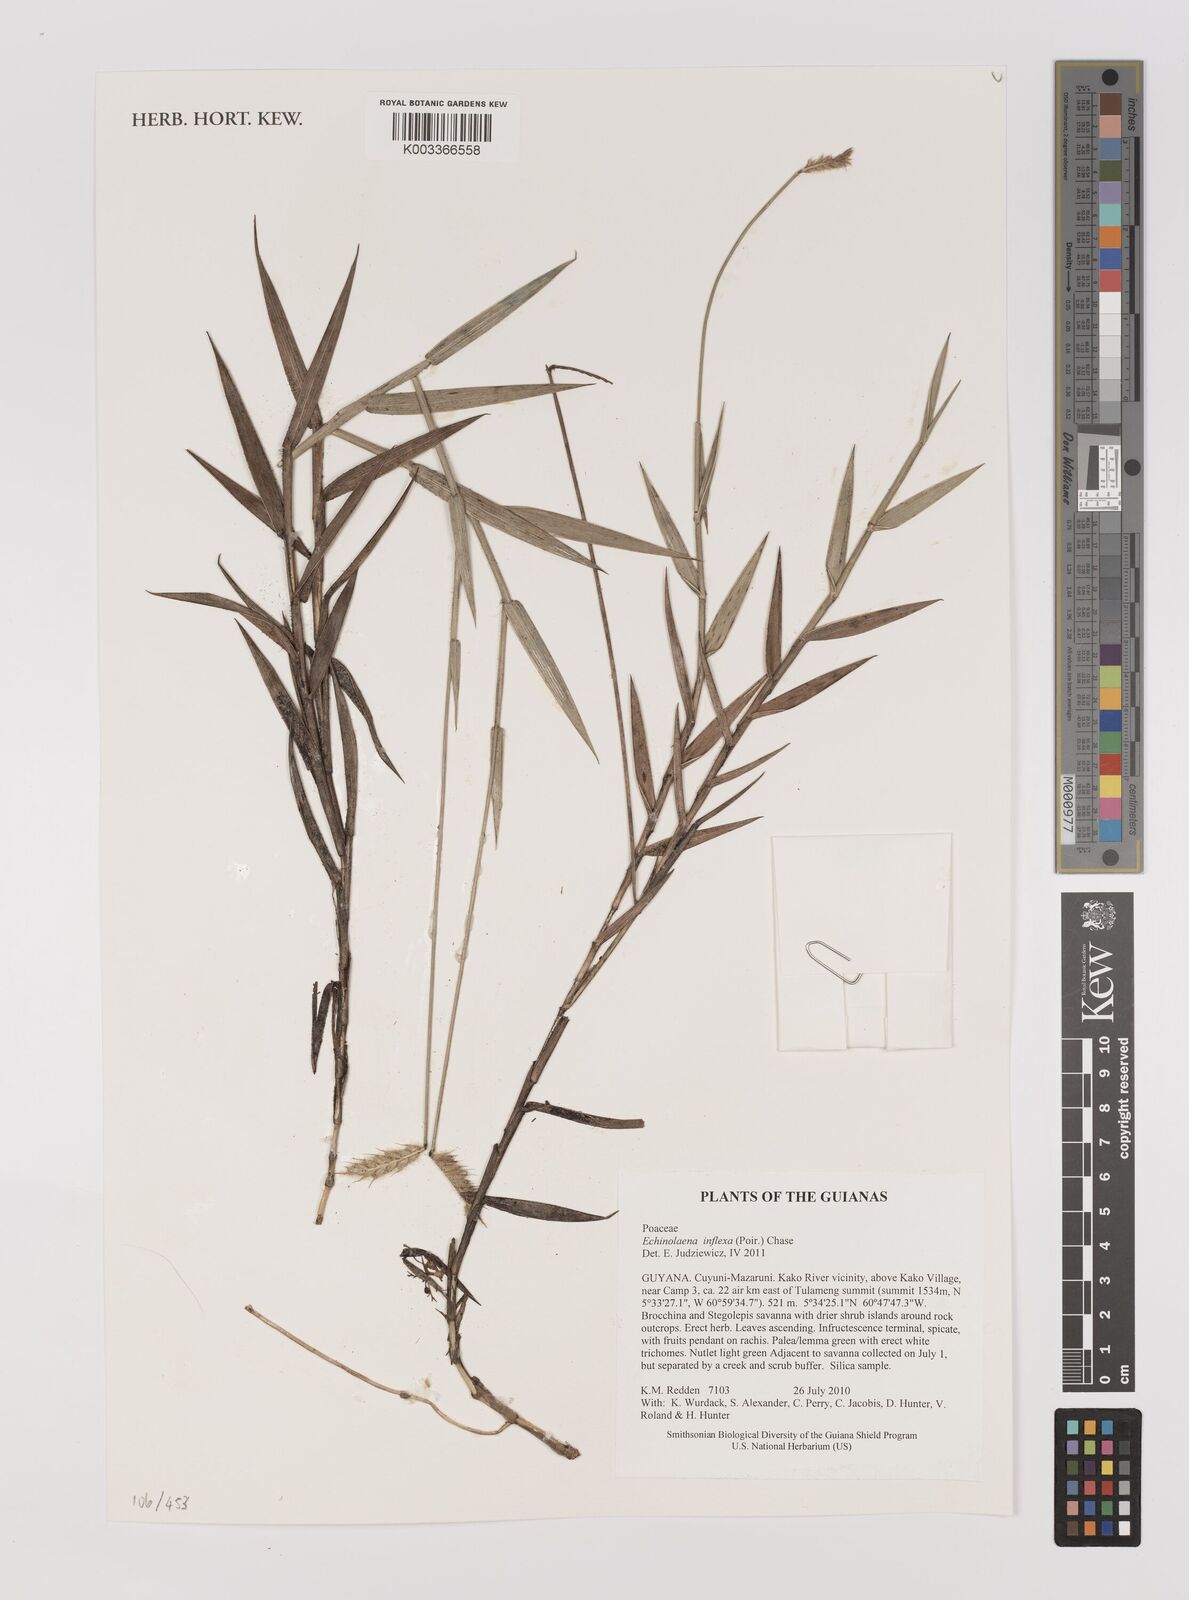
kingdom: Plantae
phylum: Tracheophyta
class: Liliopsida
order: Poales
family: Poaceae
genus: Echinolaena
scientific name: Echinolaena inflexa
